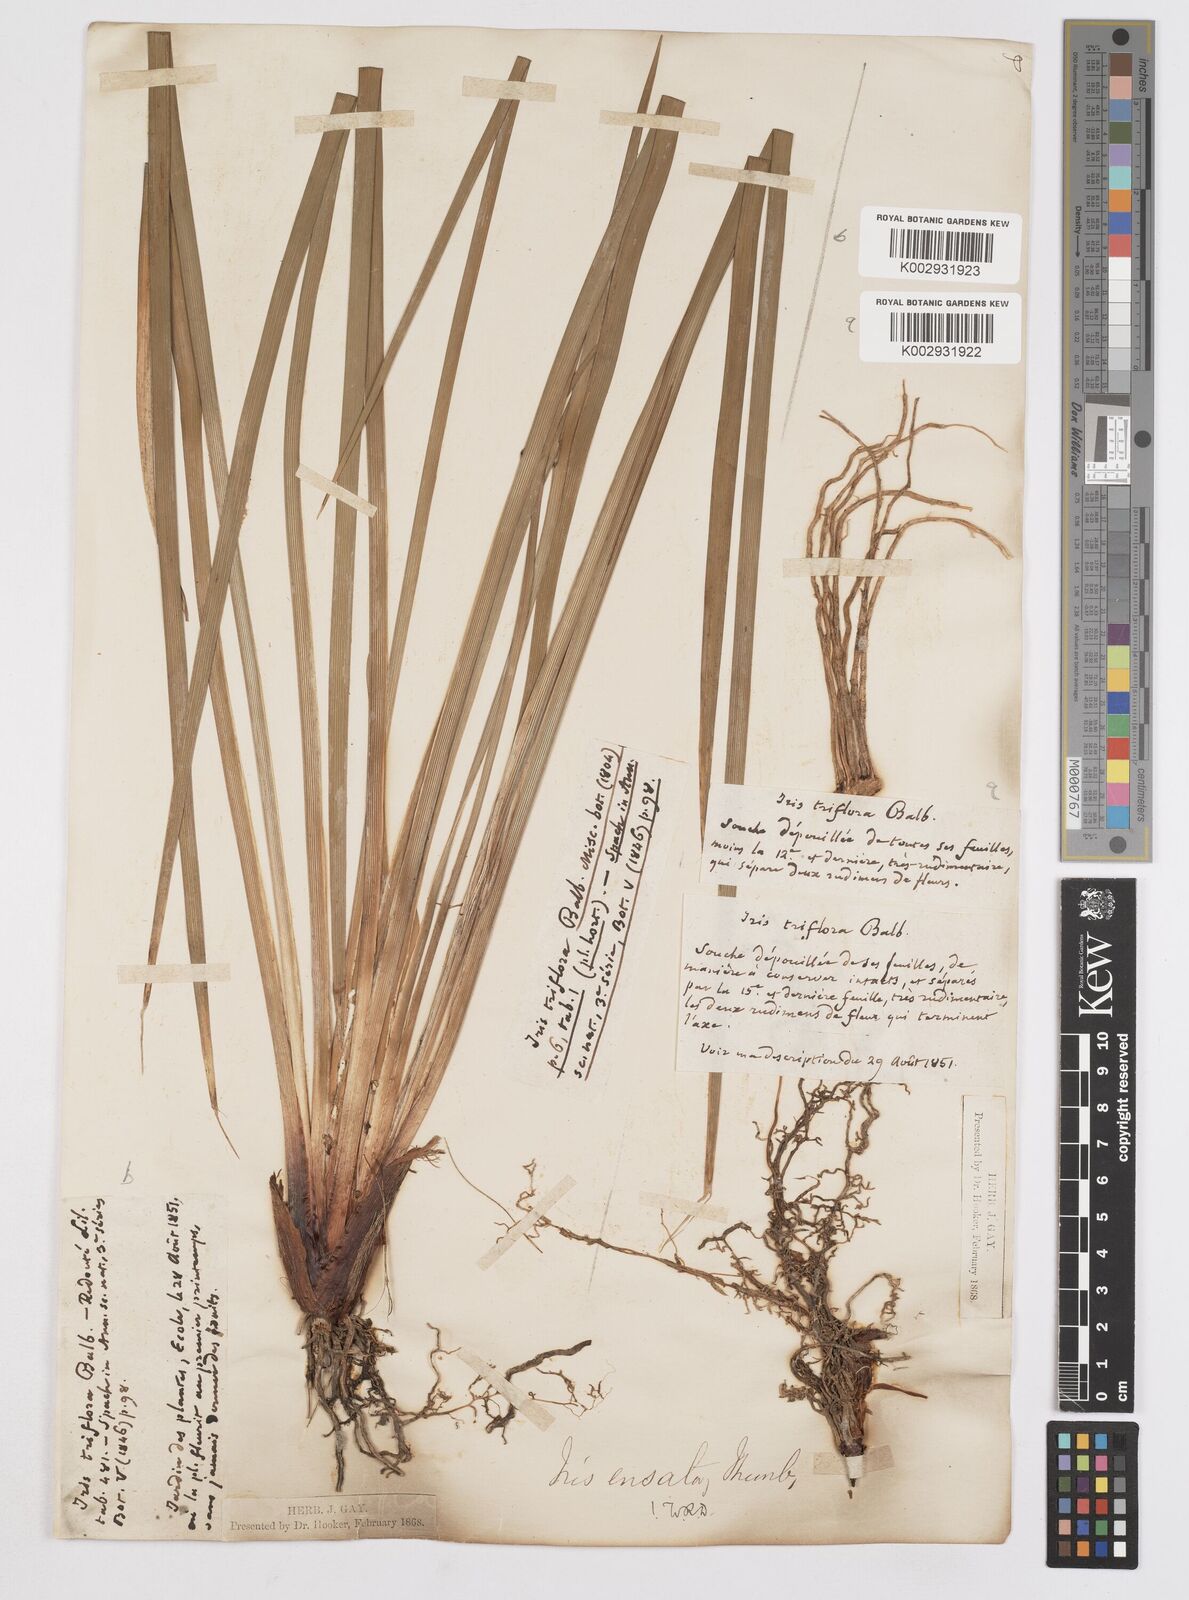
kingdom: Plantae
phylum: Tracheophyta
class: Liliopsida
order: Asparagales
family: Iridaceae
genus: Iris
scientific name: Iris ensata
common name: Beaked iris
